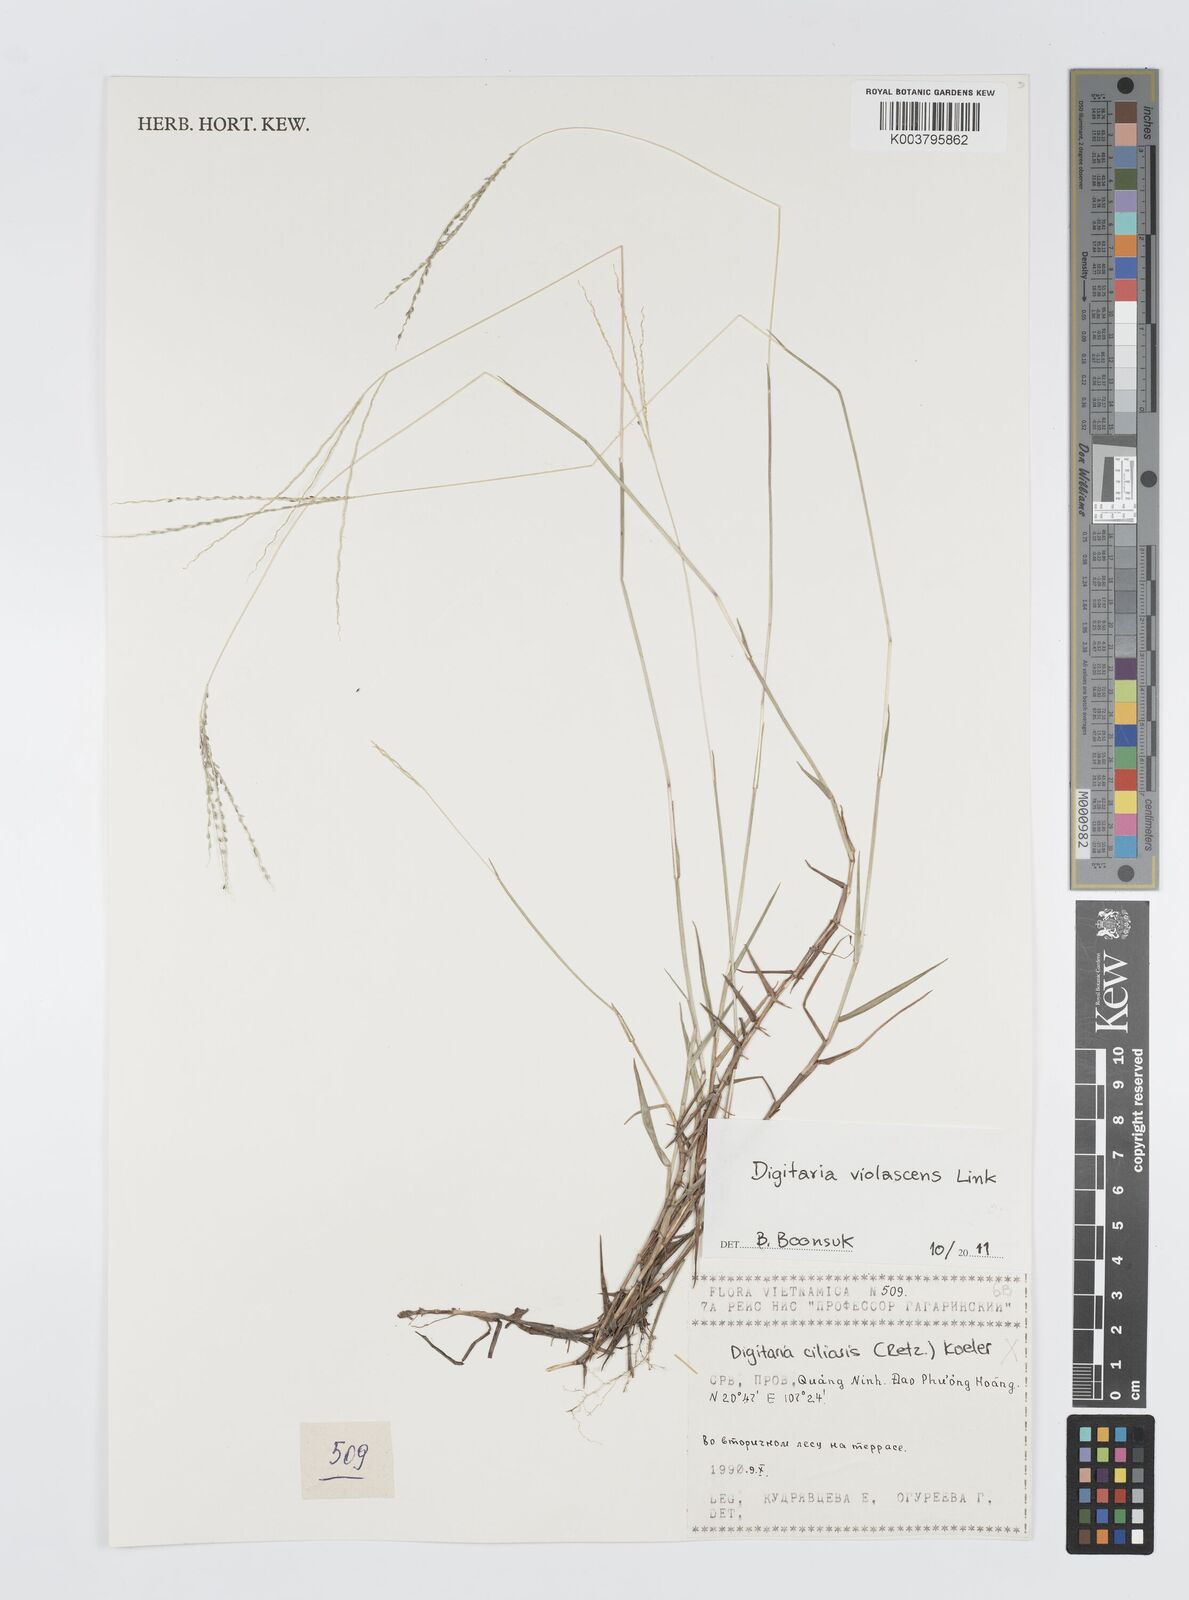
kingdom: Plantae
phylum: Tracheophyta
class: Liliopsida
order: Poales
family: Poaceae
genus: Digitaria
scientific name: Digitaria violascens
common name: Violet crabgrass
